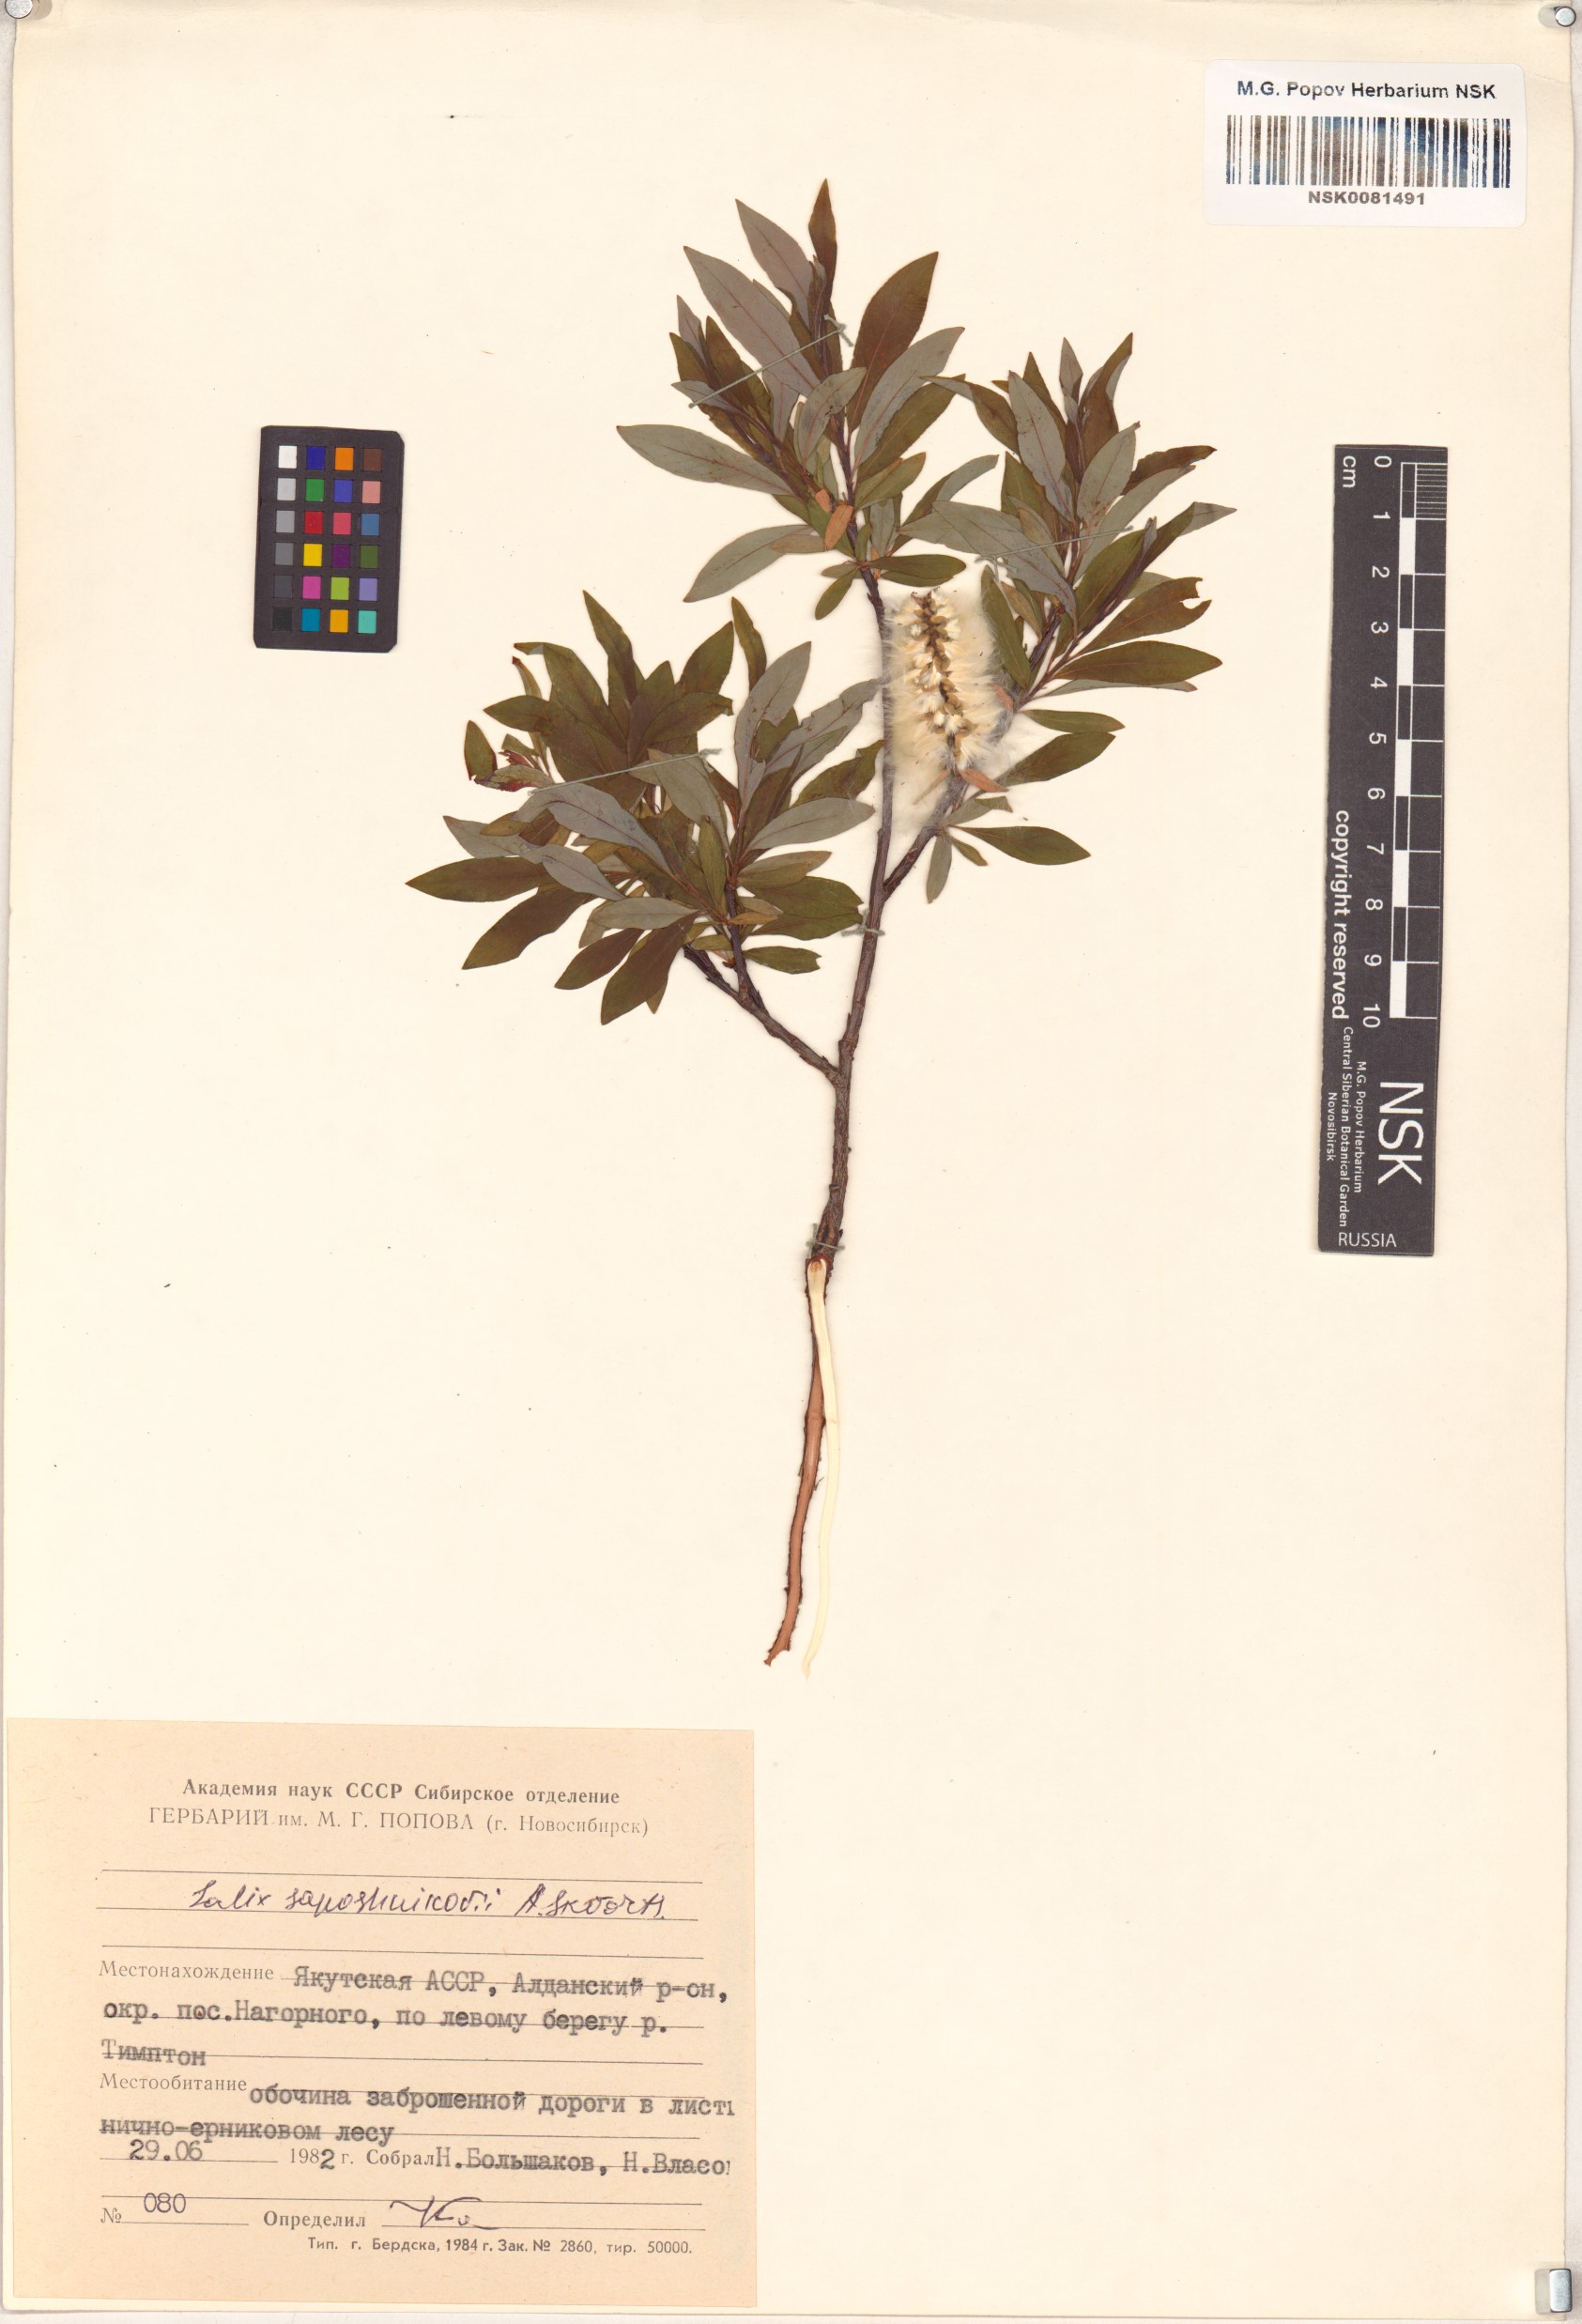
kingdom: Plantae
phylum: Tracheophyta
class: Magnoliopsida
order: Malpighiales
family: Salicaceae
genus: Salix
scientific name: Salix saposhnikovii
